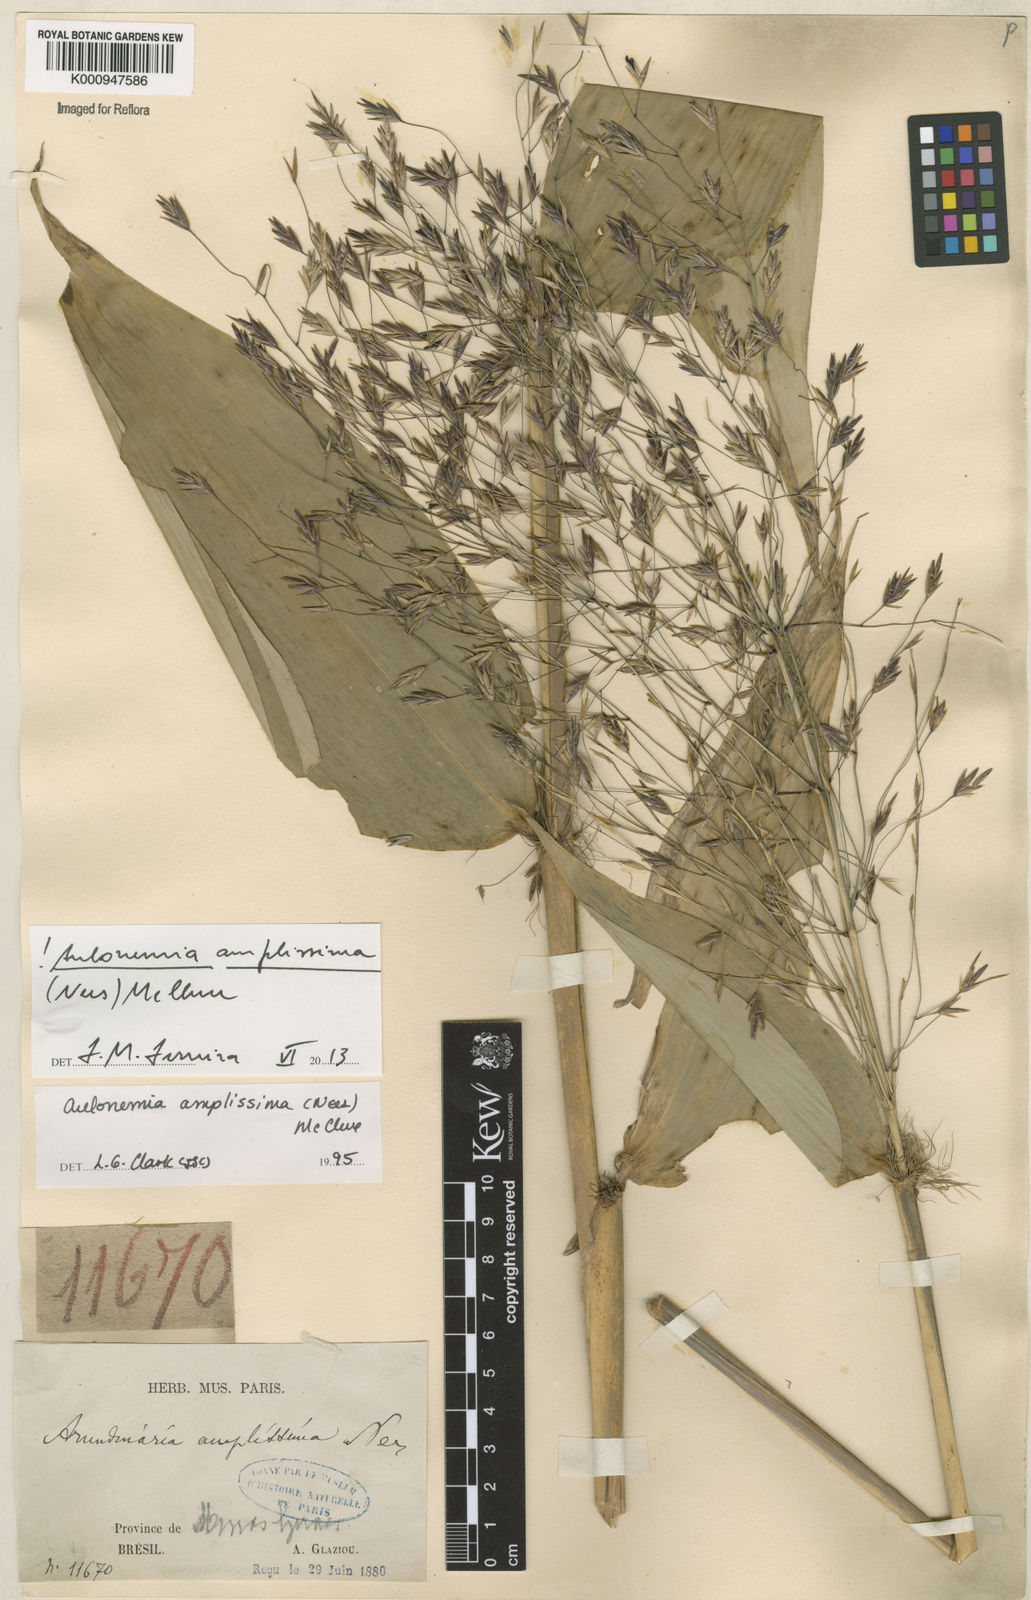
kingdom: Plantae
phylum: Tracheophyta
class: Liliopsida
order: Poales
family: Poaceae
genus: Aulonemia
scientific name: Aulonemia amplissima
